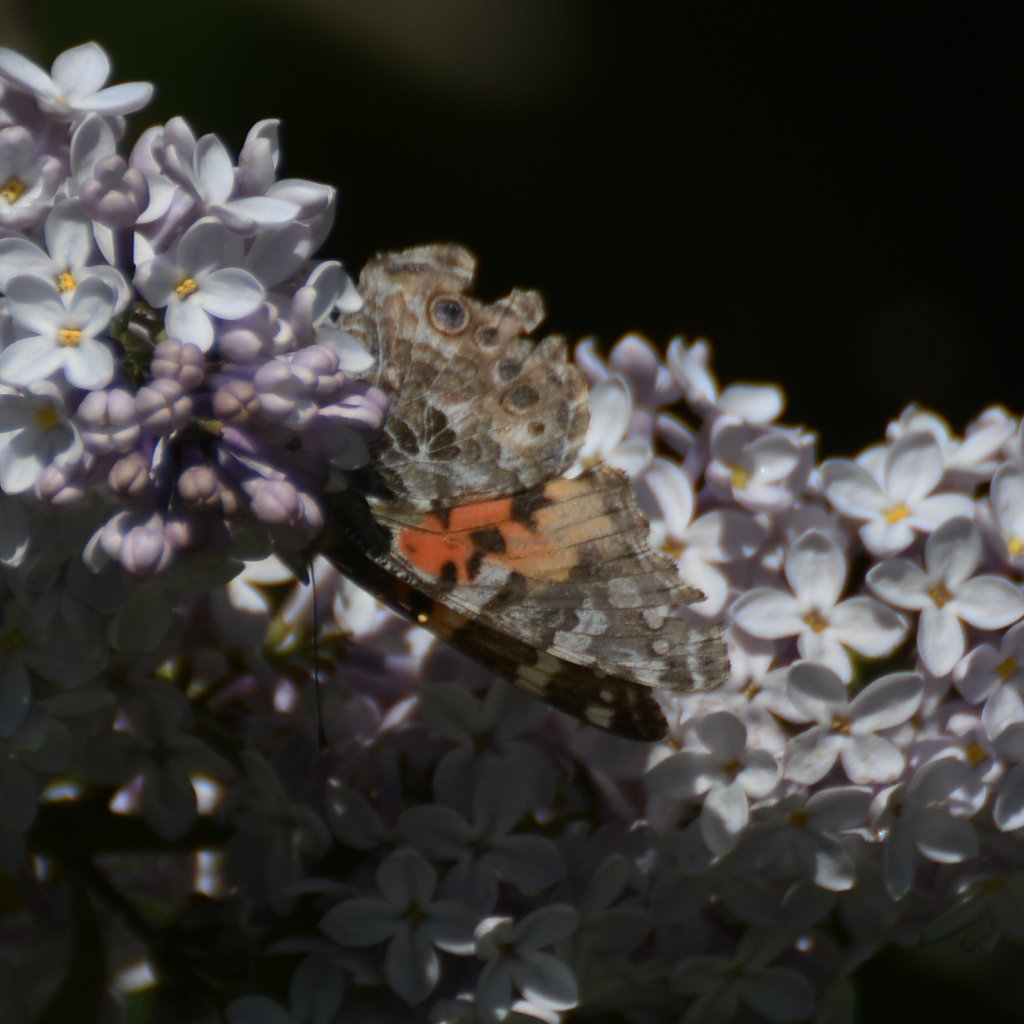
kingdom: Animalia
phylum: Arthropoda
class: Insecta
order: Lepidoptera
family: Nymphalidae
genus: Vanessa
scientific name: Vanessa cardui
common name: Painted Lady
